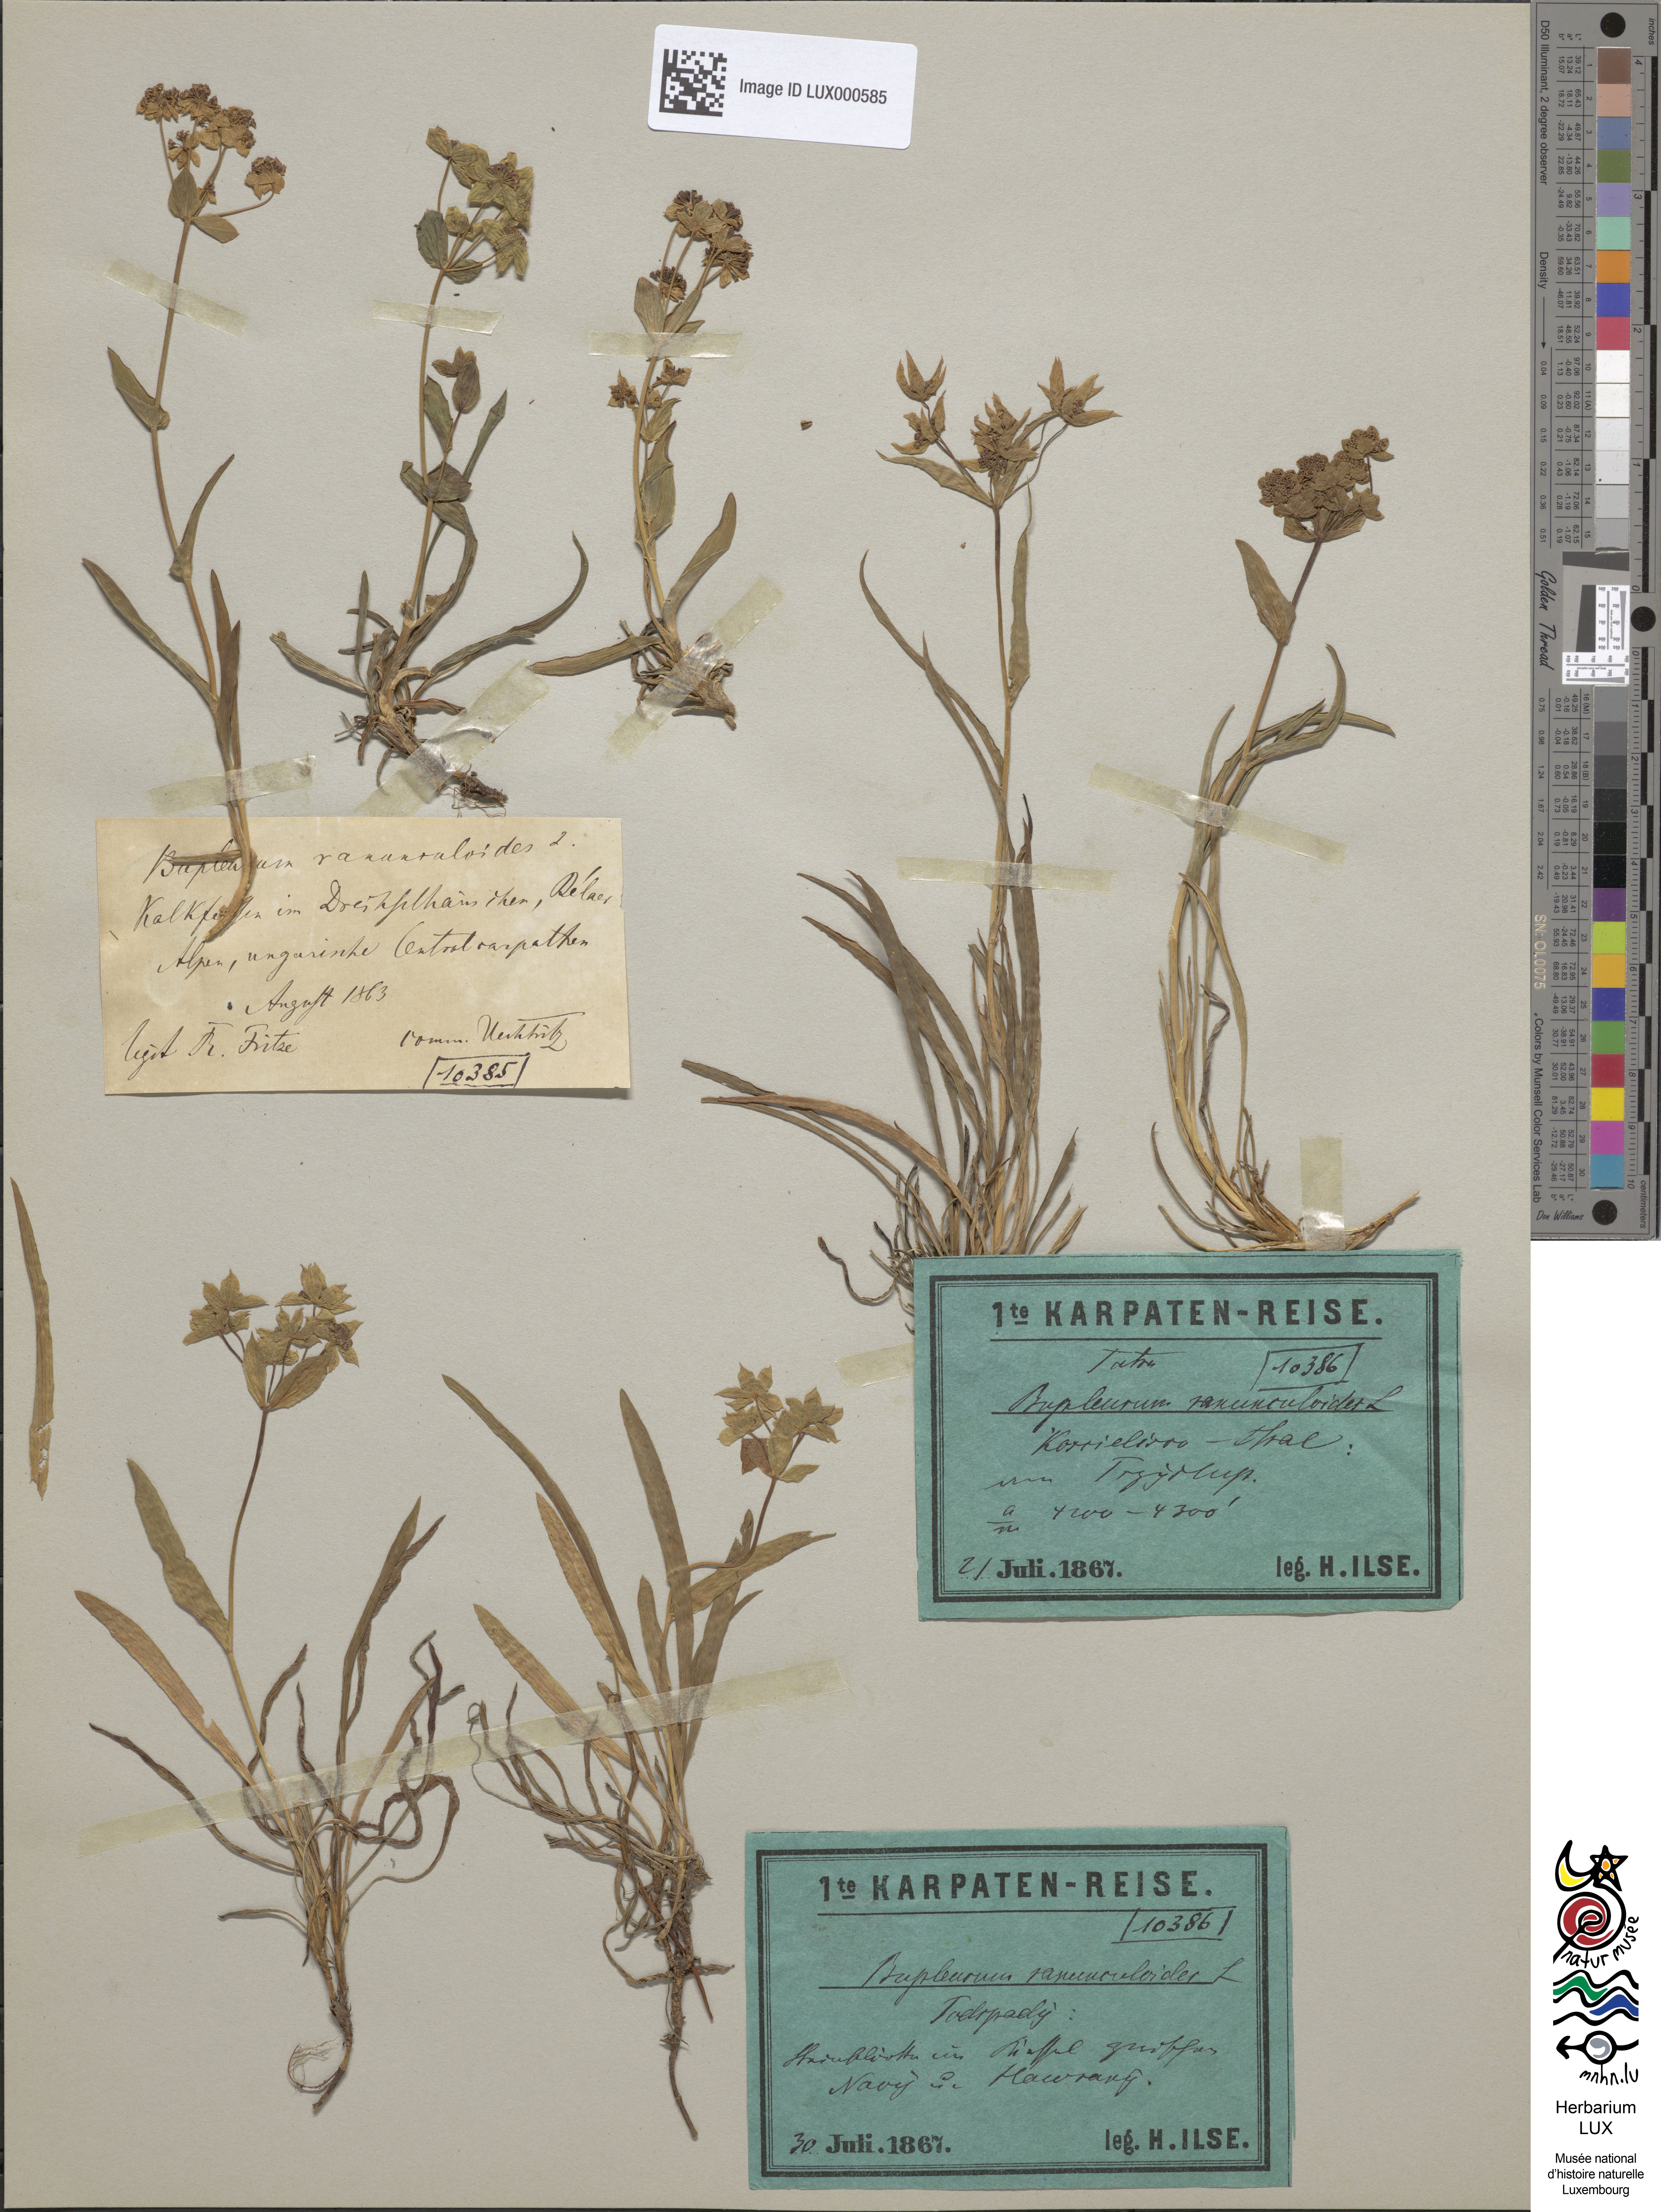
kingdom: Plantae
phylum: Tracheophyta
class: Magnoliopsida
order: Apiales
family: Apiaceae
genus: Bupleurum
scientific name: Bupleurum ranunculoides
